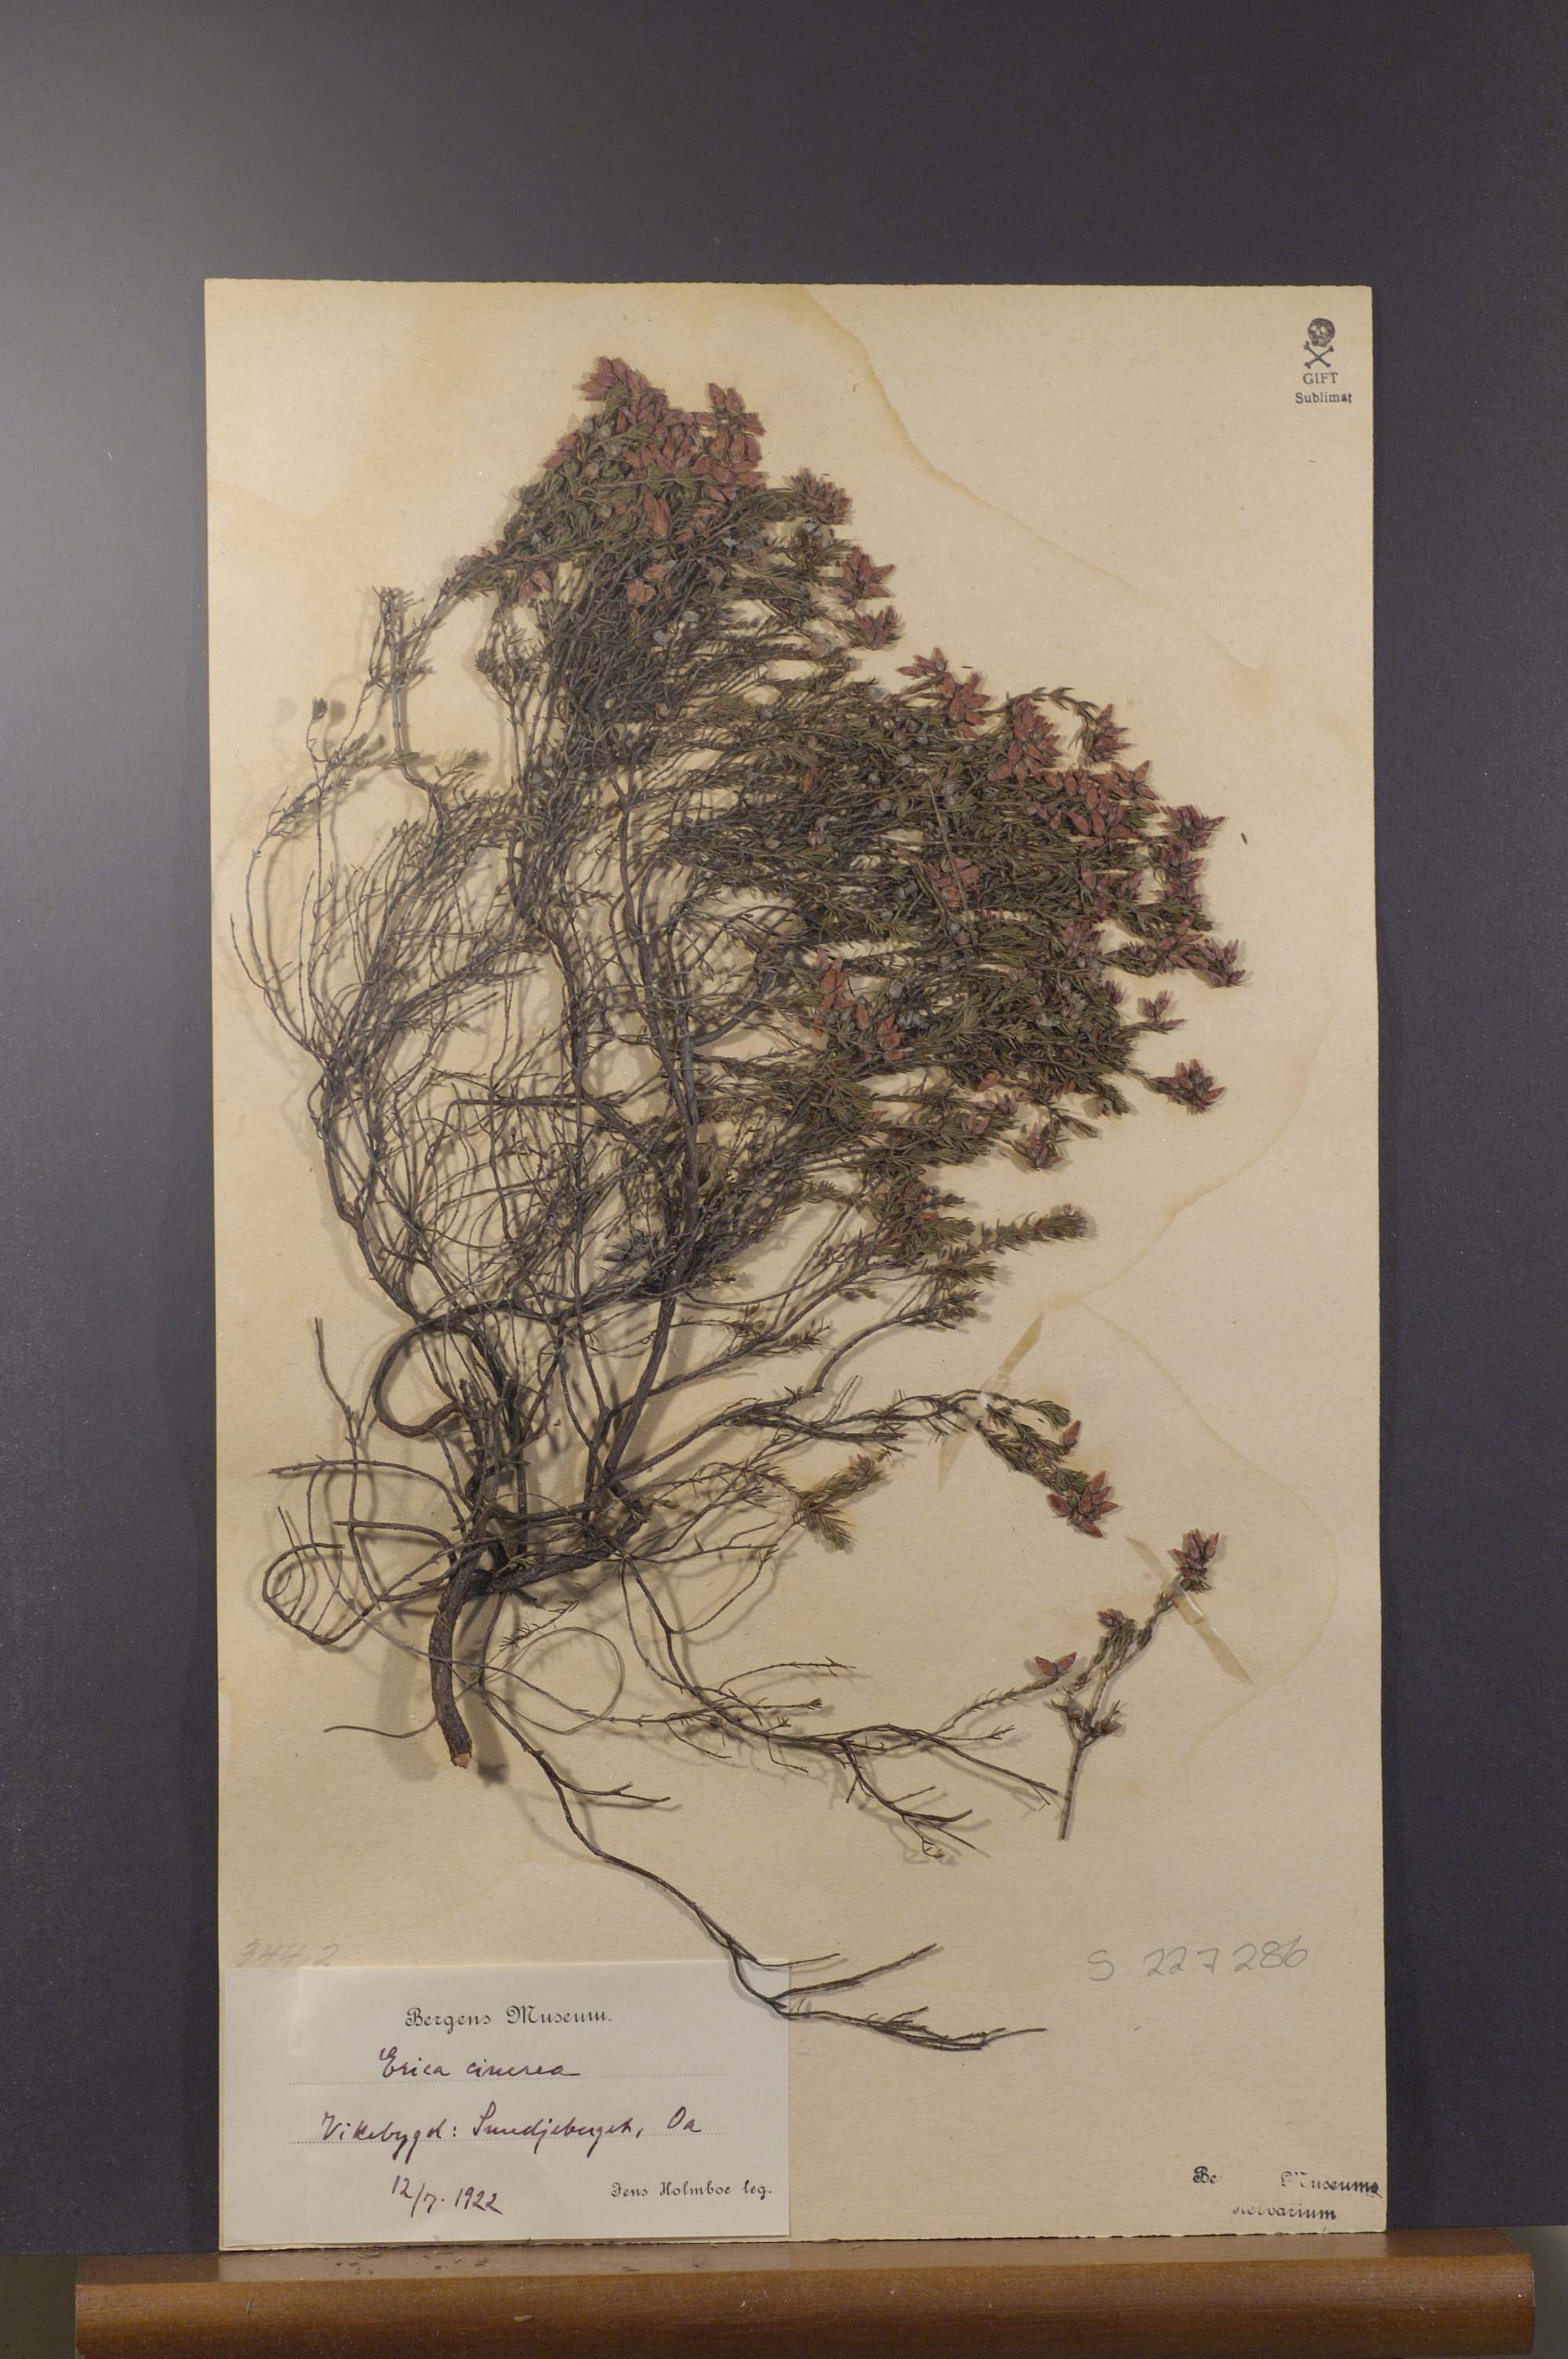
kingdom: Plantae
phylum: Tracheophyta
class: Magnoliopsida
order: Ericales
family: Ericaceae
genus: Erica
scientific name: Erica cinerea
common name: Bell heather
